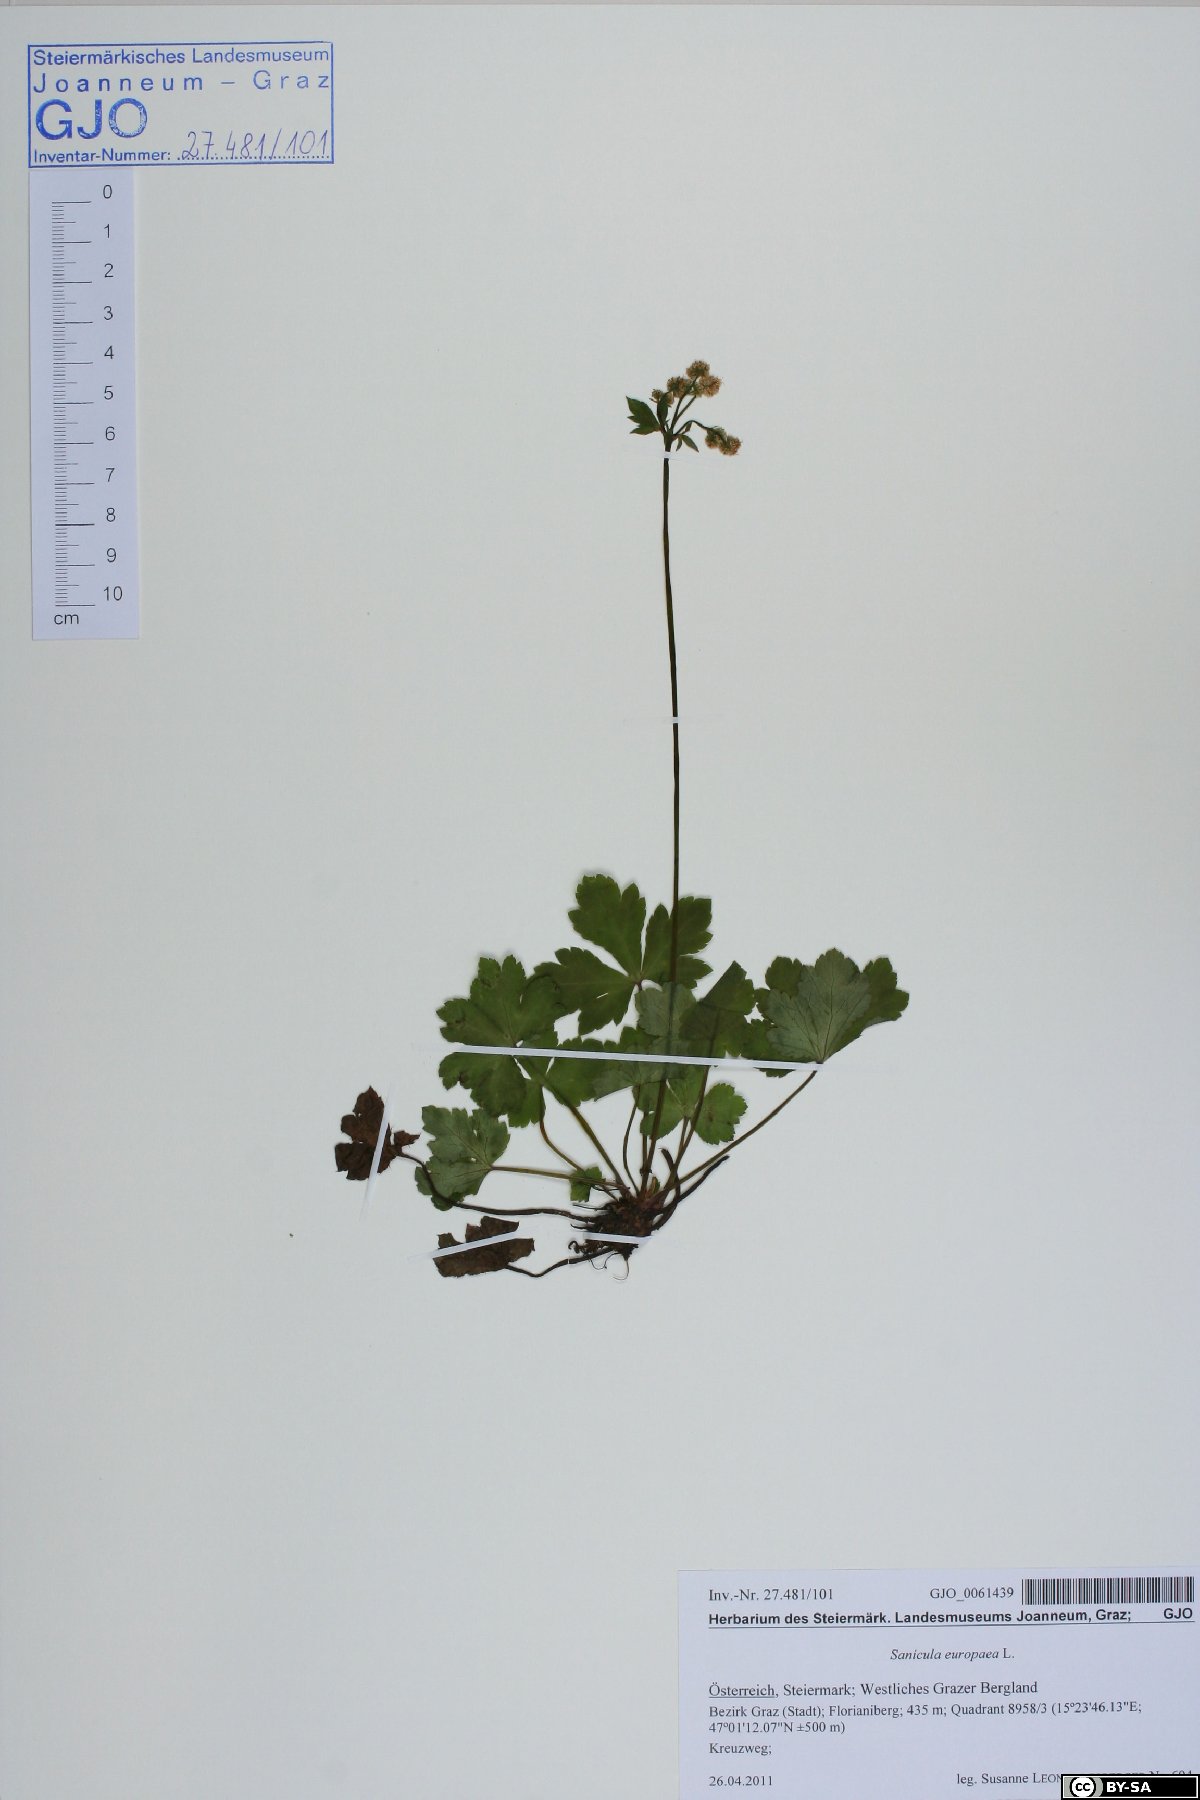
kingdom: Plantae
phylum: Tracheophyta
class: Magnoliopsida
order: Apiales
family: Apiaceae
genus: Sanicula
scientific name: Sanicula europaea
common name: Sanicle
